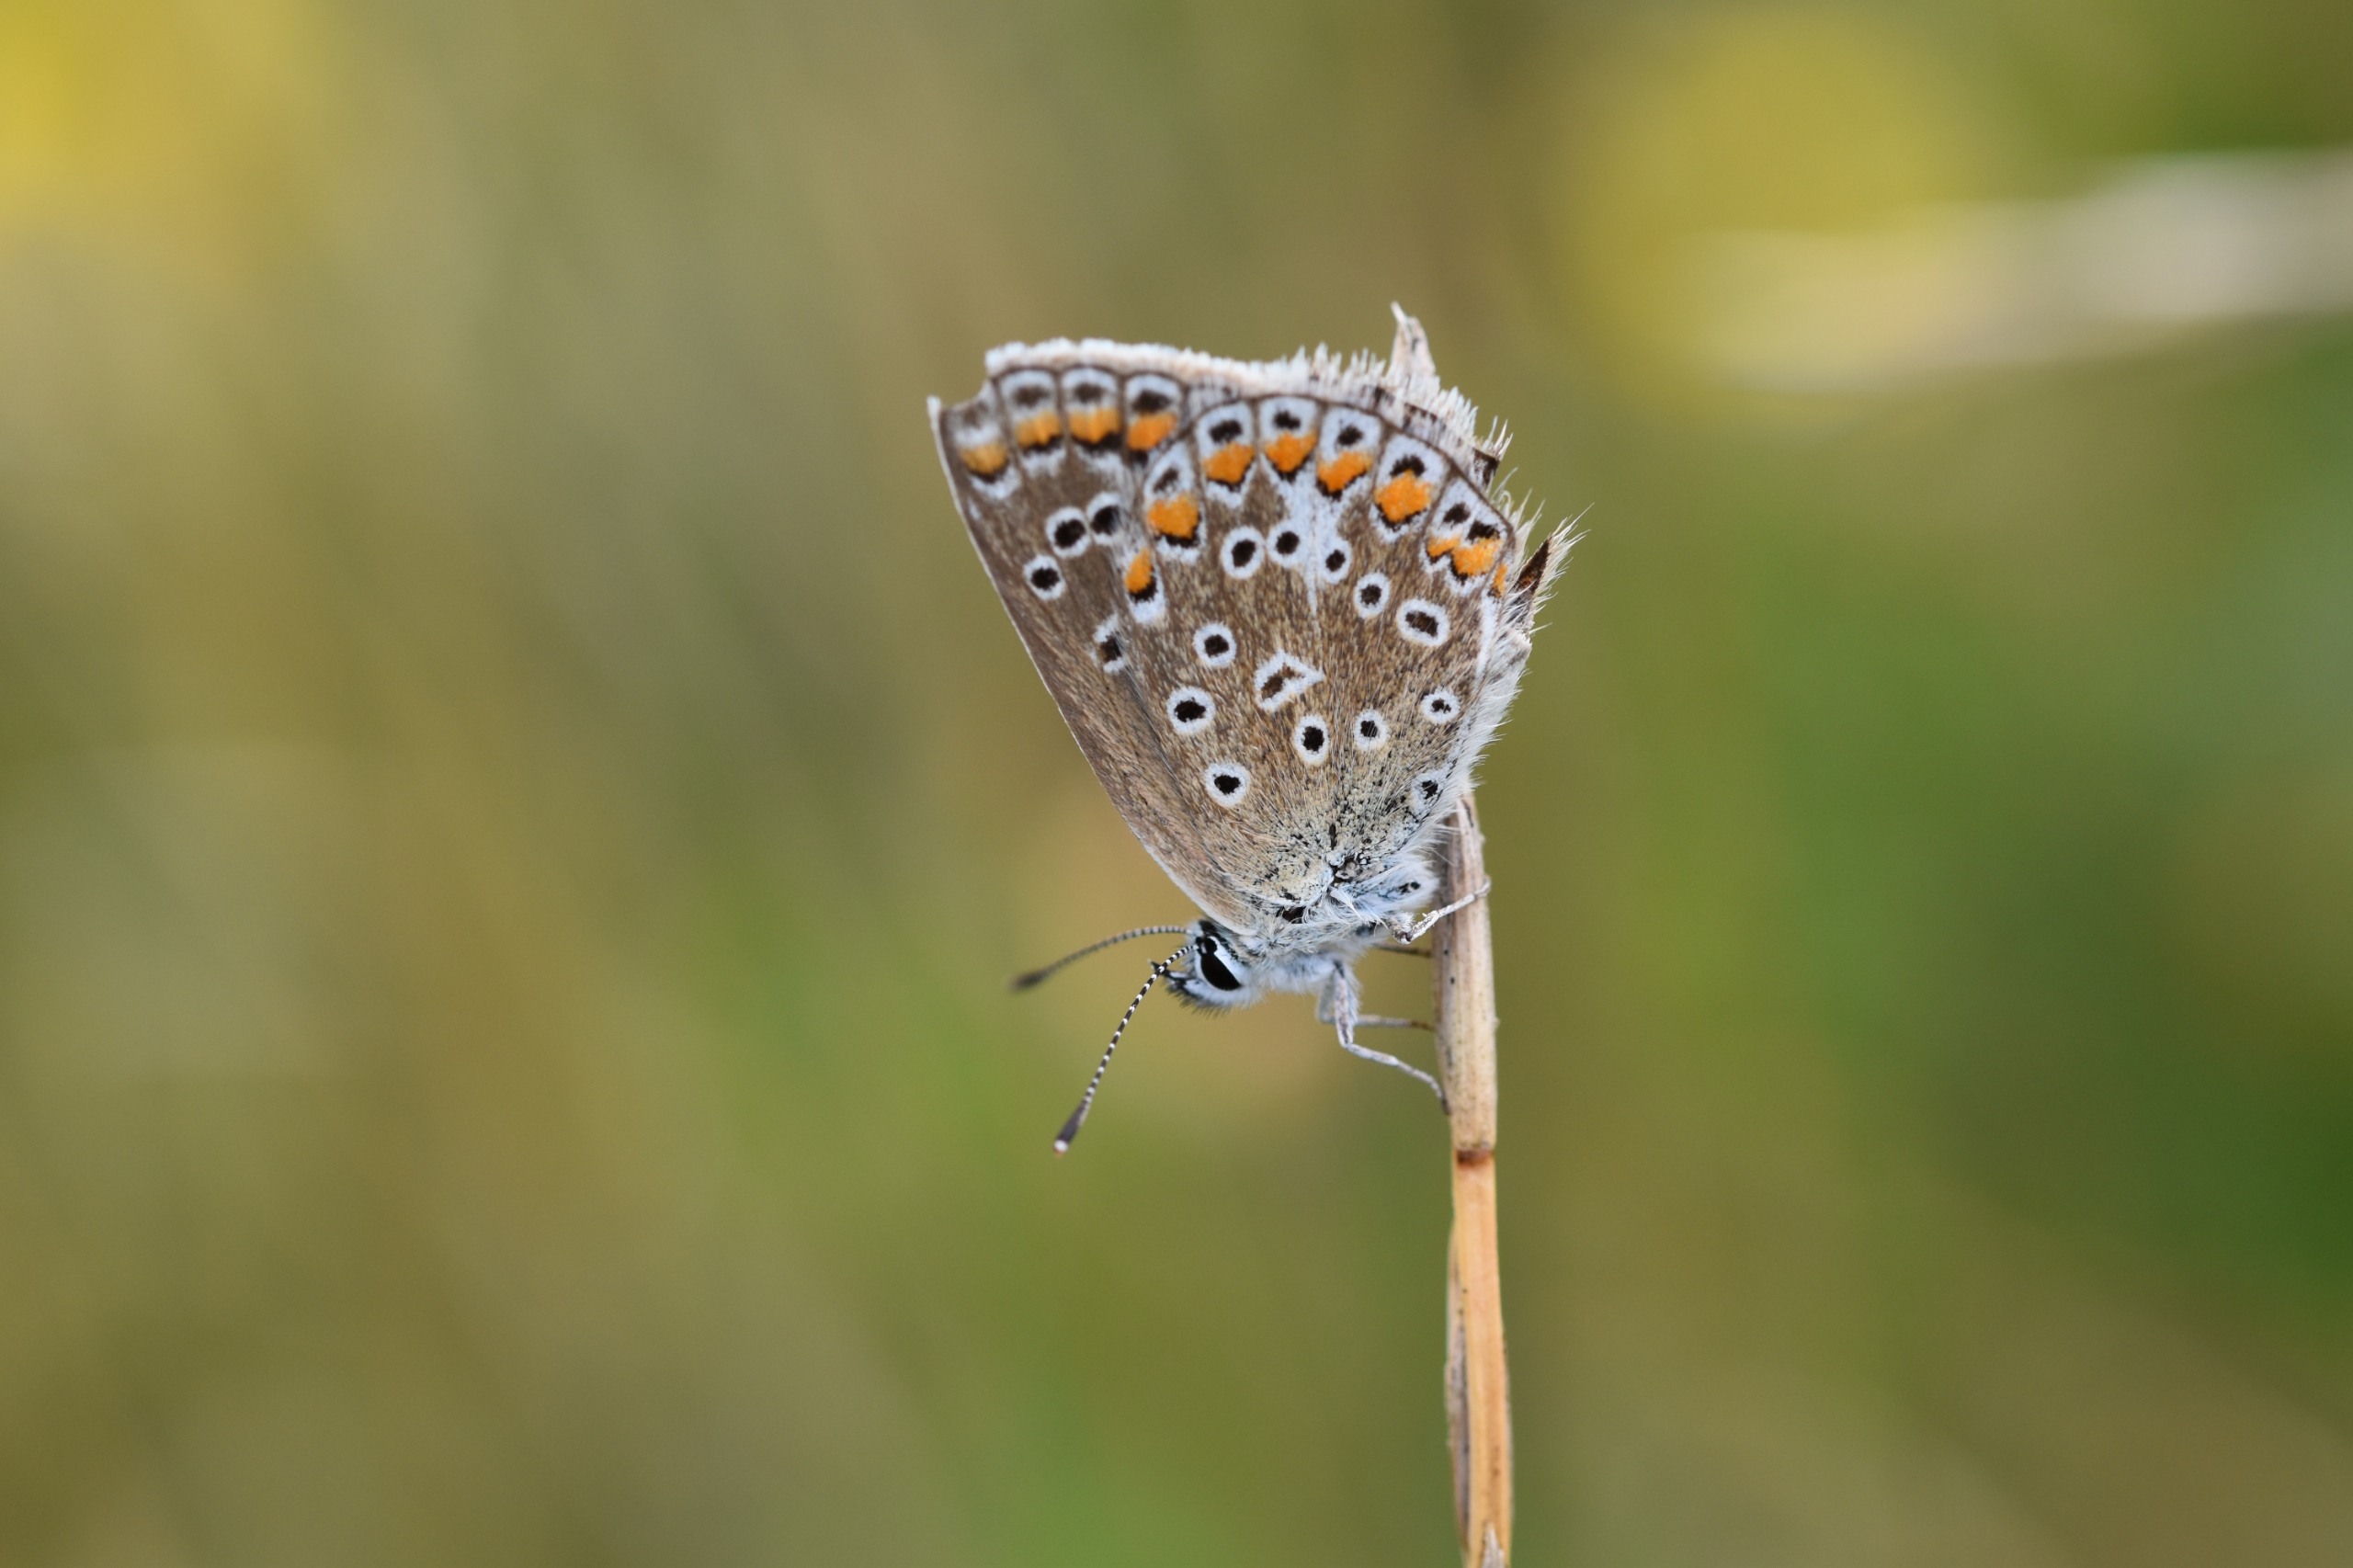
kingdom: Animalia
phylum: Arthropoda
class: Insecta
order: Lepidoptera
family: Lycaenidae
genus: Polyommatus
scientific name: Polyommatus icarus
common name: Almindelig blåfugl
